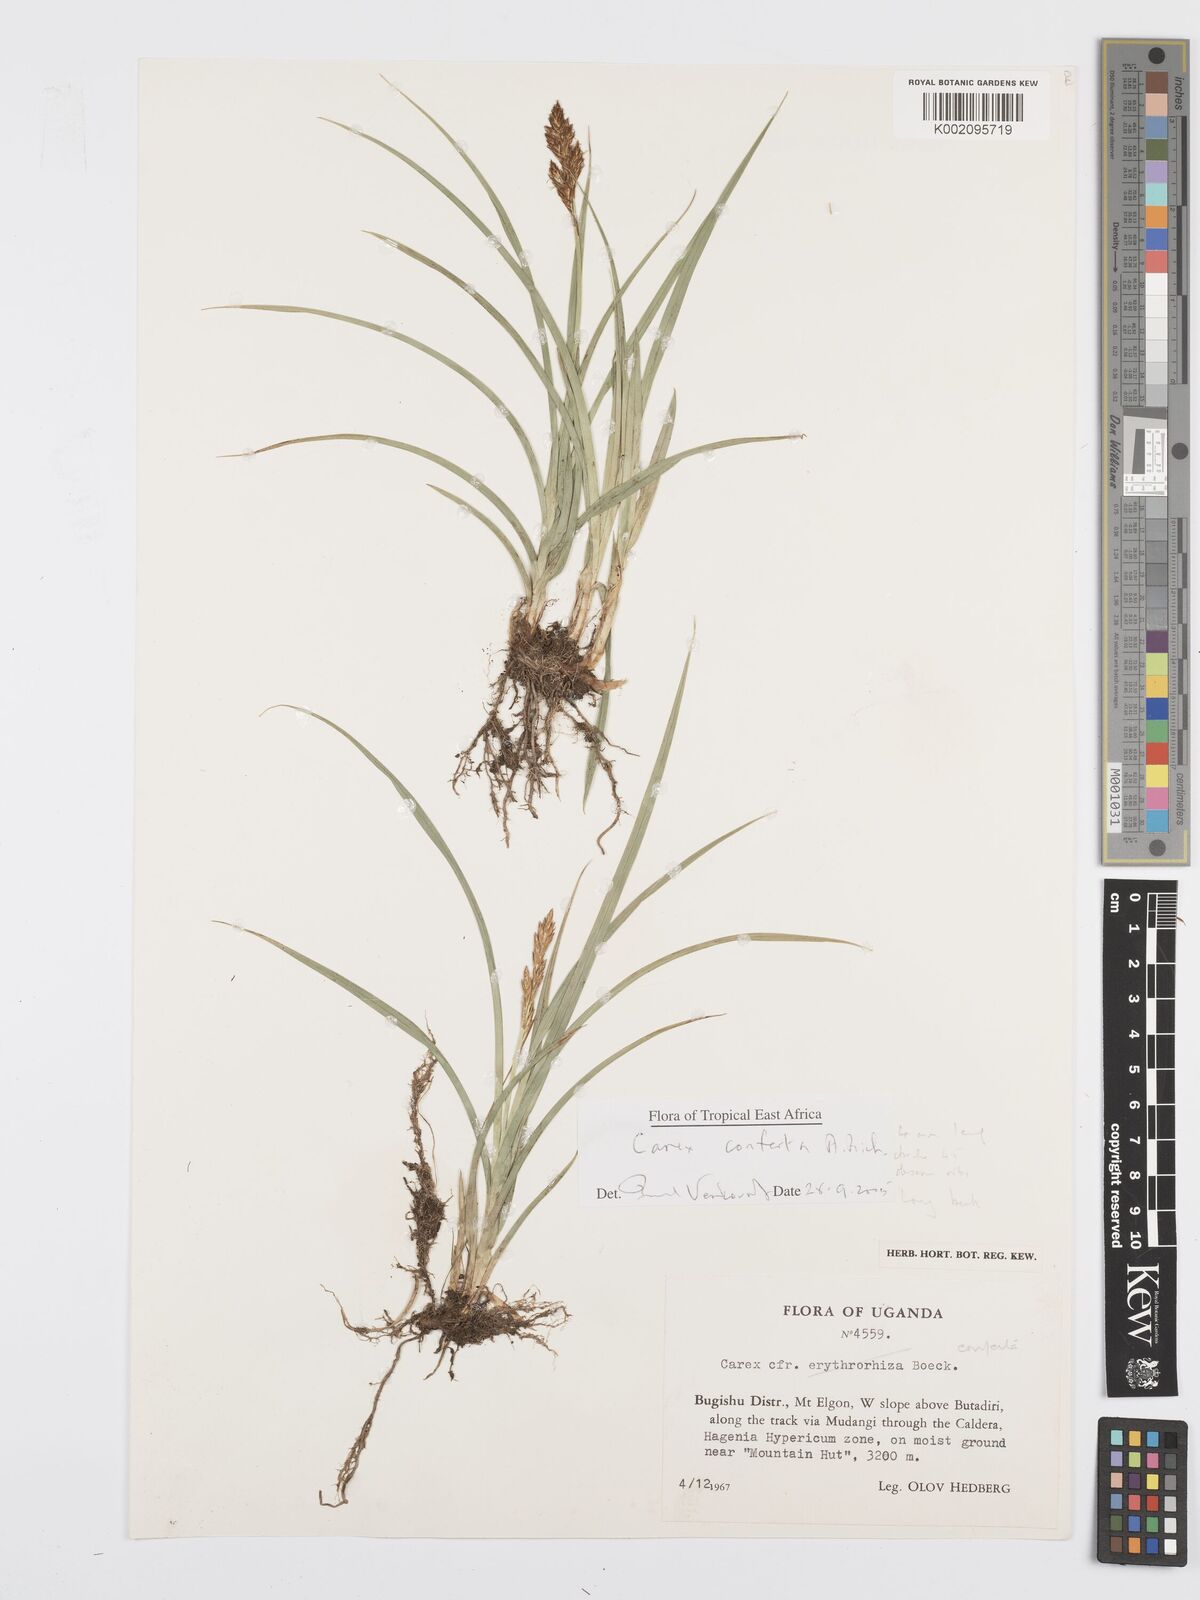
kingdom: Plantae
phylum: Tracheophyta
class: Liliopsida
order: Poales
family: Cyperaceae
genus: Carex
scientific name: Carex conferta
